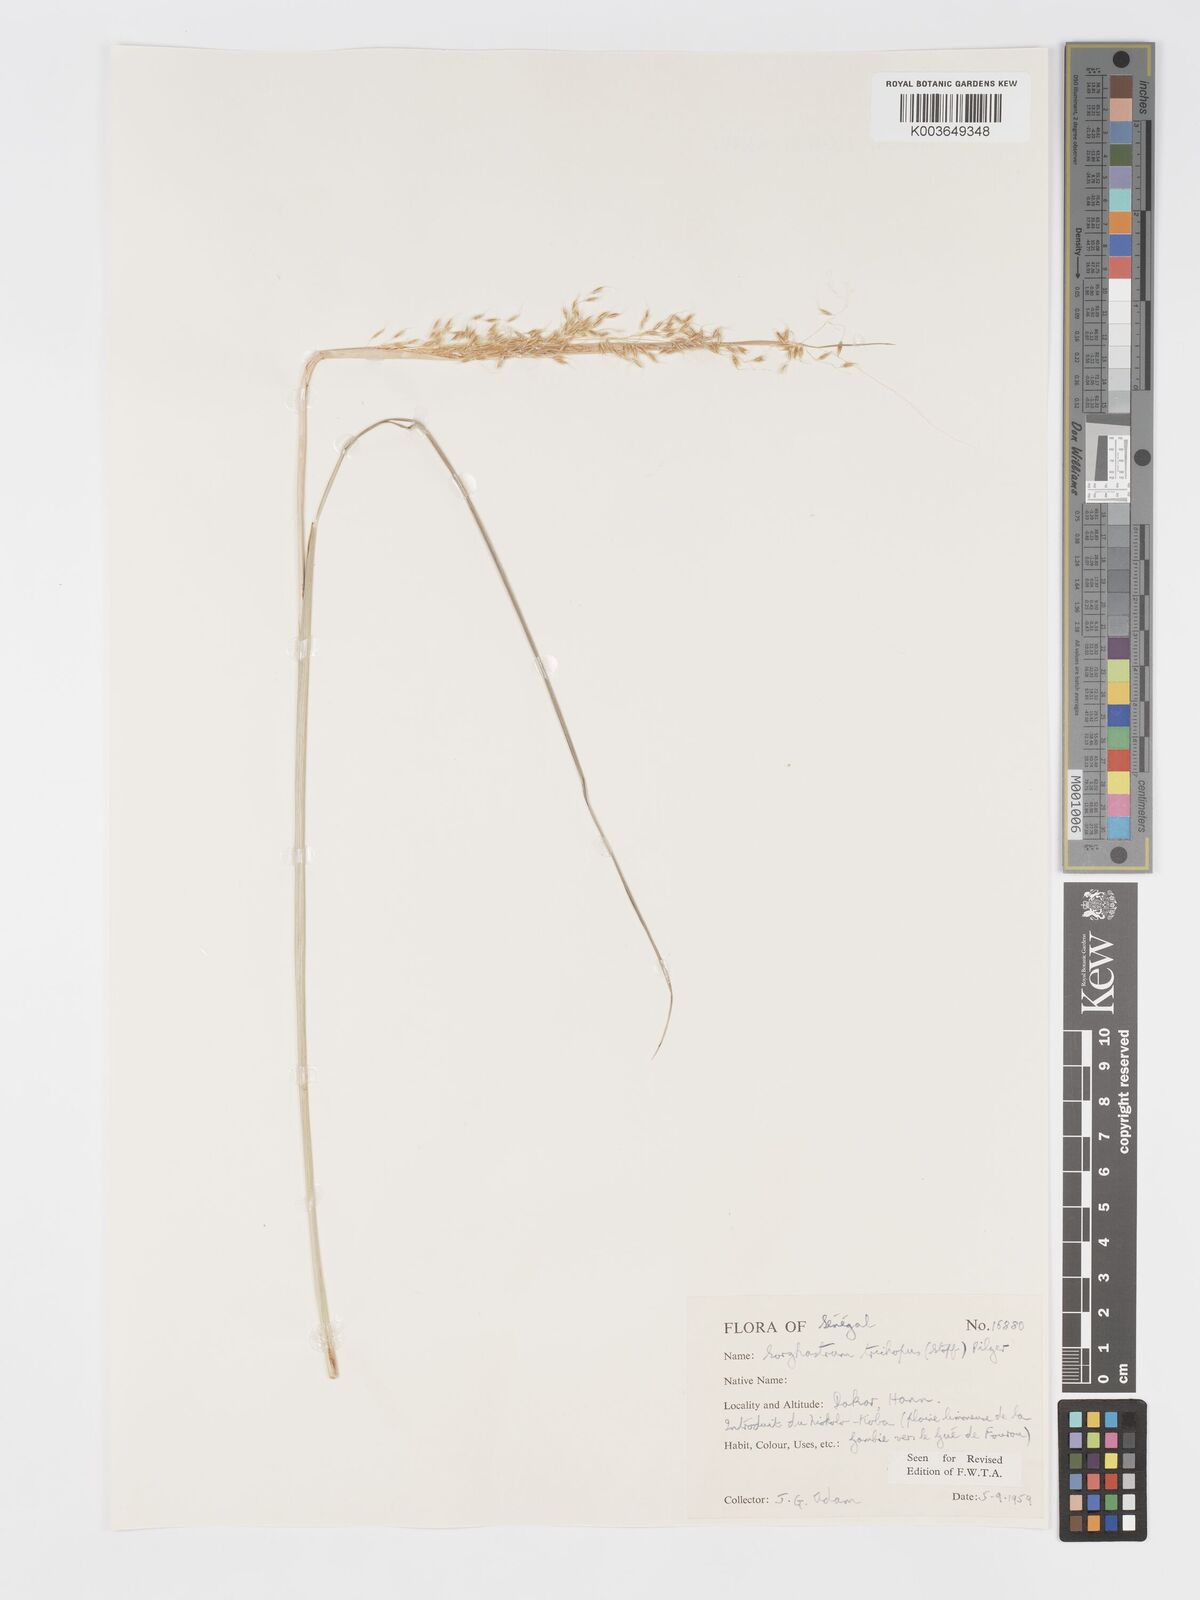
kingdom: Plantae
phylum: Tracheophyta
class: Liliopsida
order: Poales
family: Poaceae
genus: Sorghastrum
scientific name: Sorghastrum stipoides
